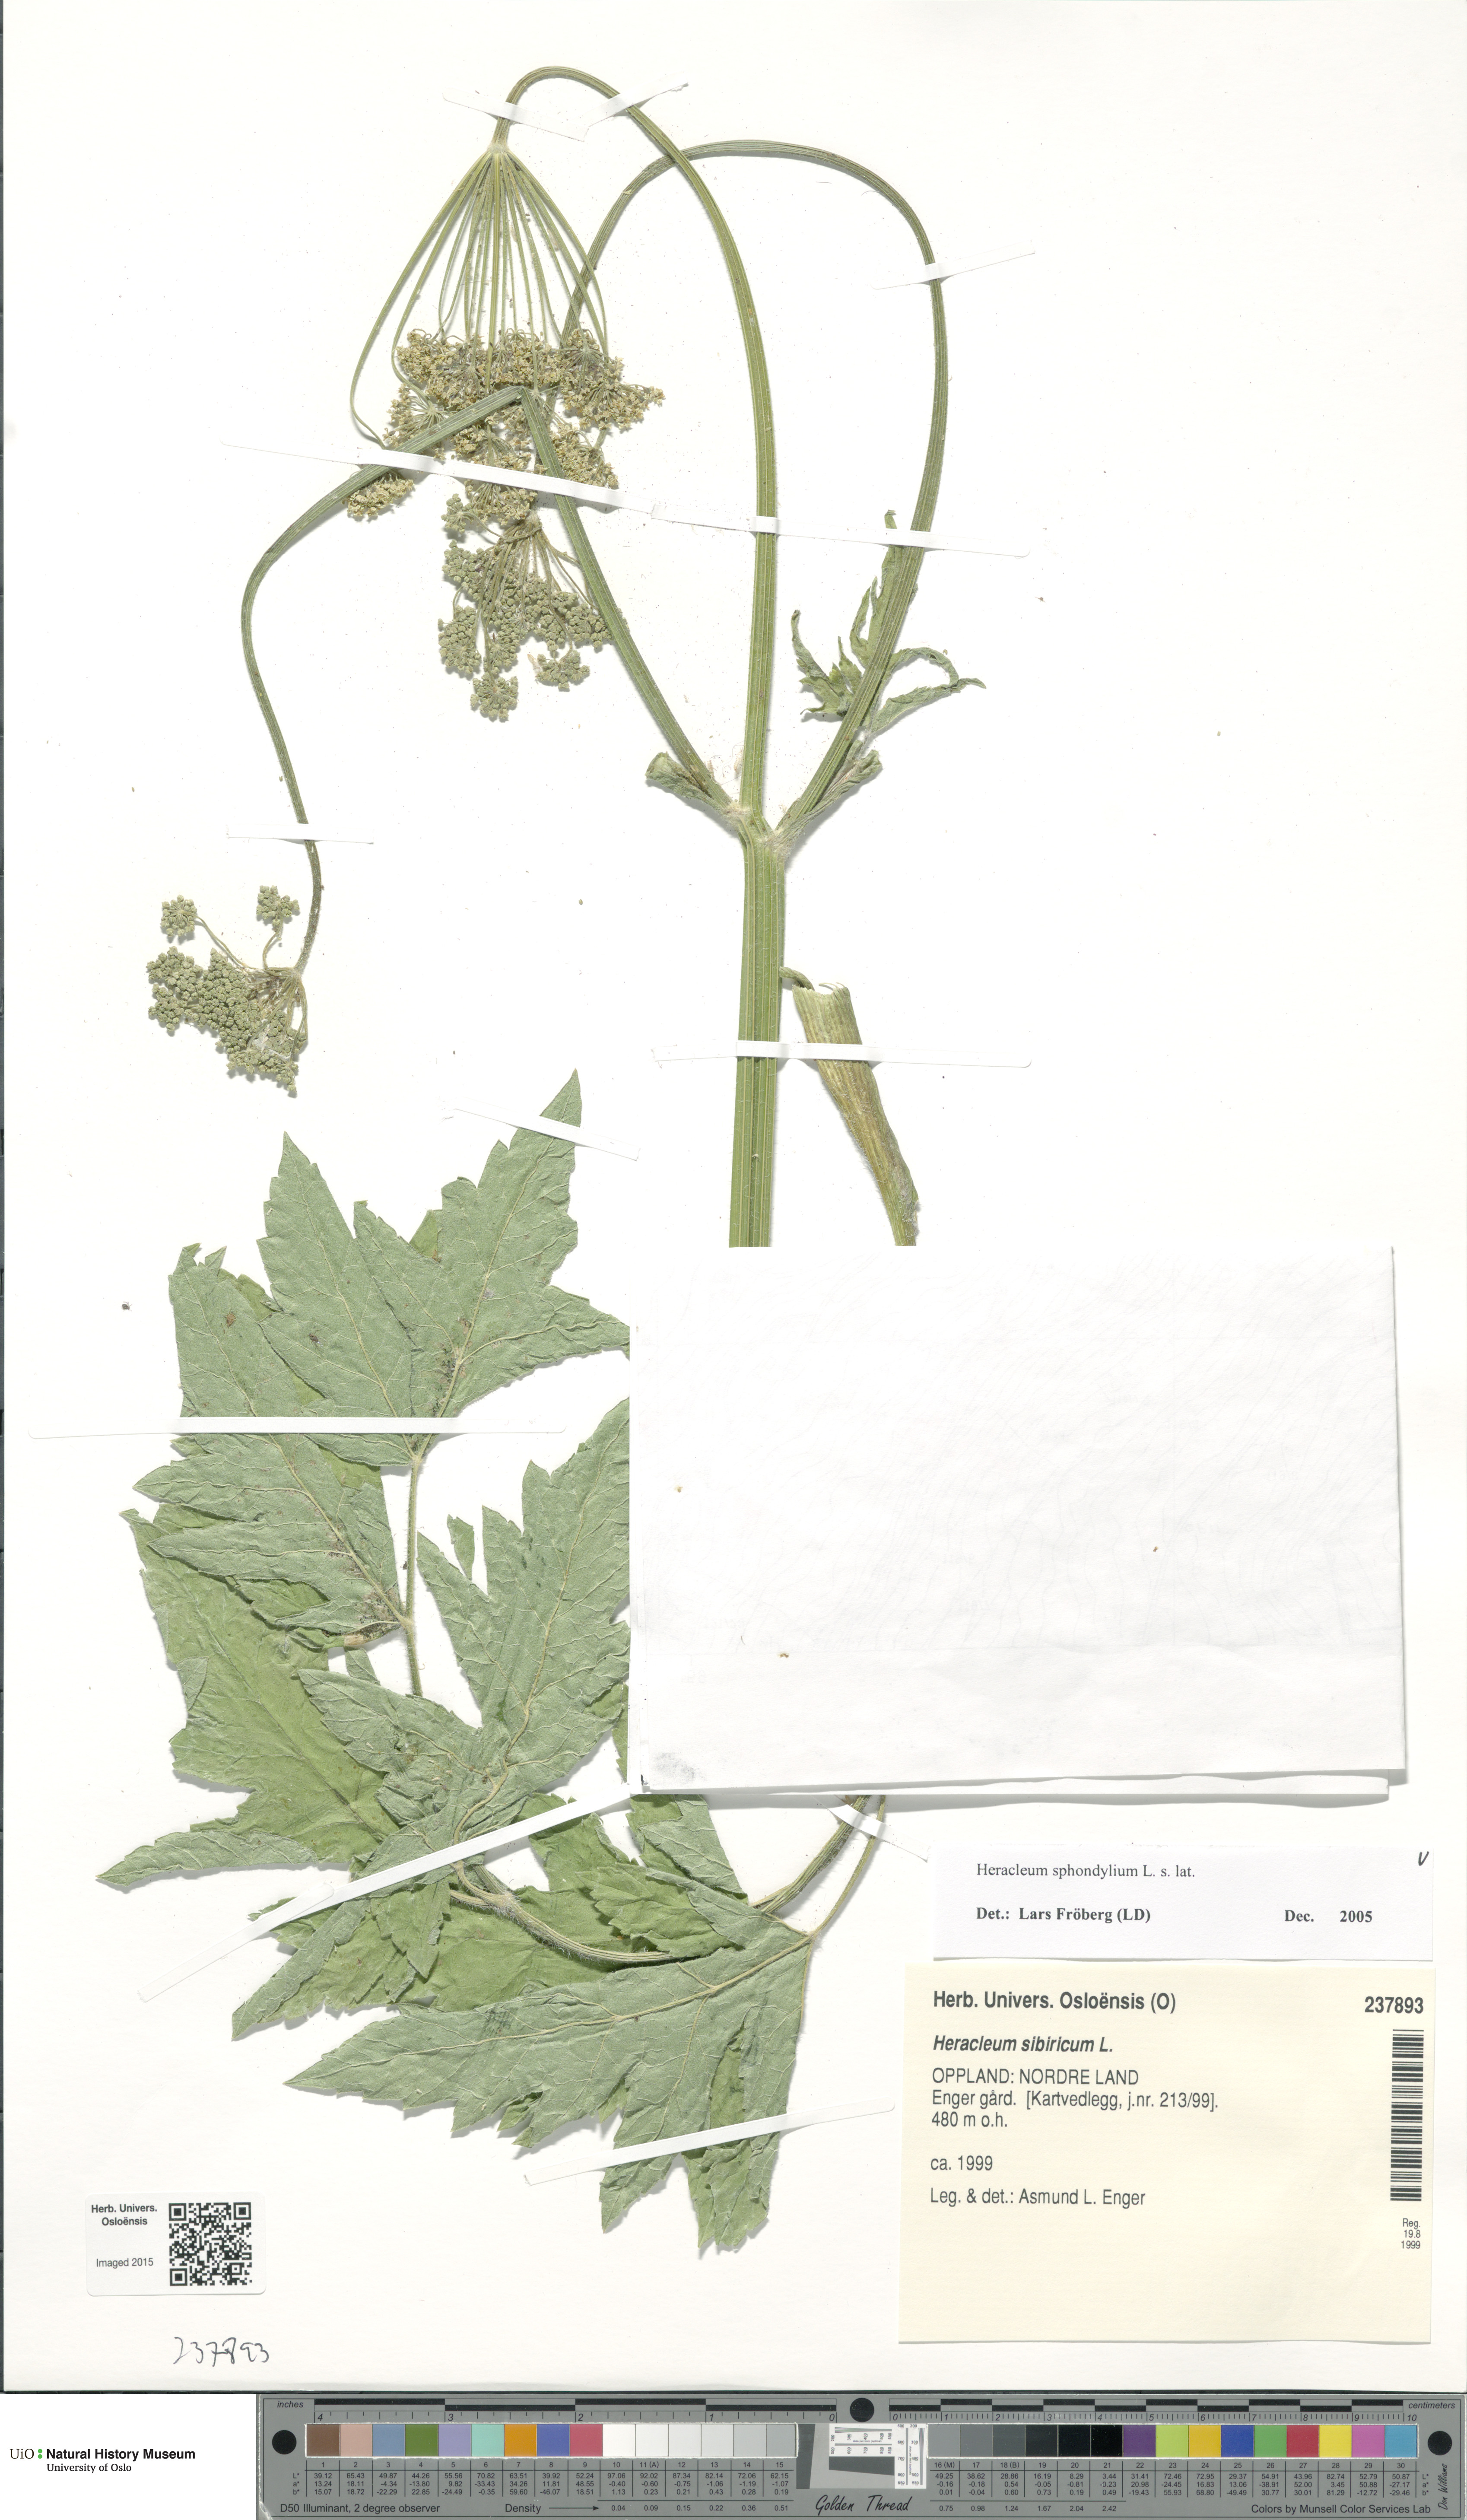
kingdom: Plantae
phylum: Tracheophyta
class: Magnoliopsida
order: Apiales
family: Apiaceae
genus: Heracleum
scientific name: Heracleum sphondylium
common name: Hogweed
